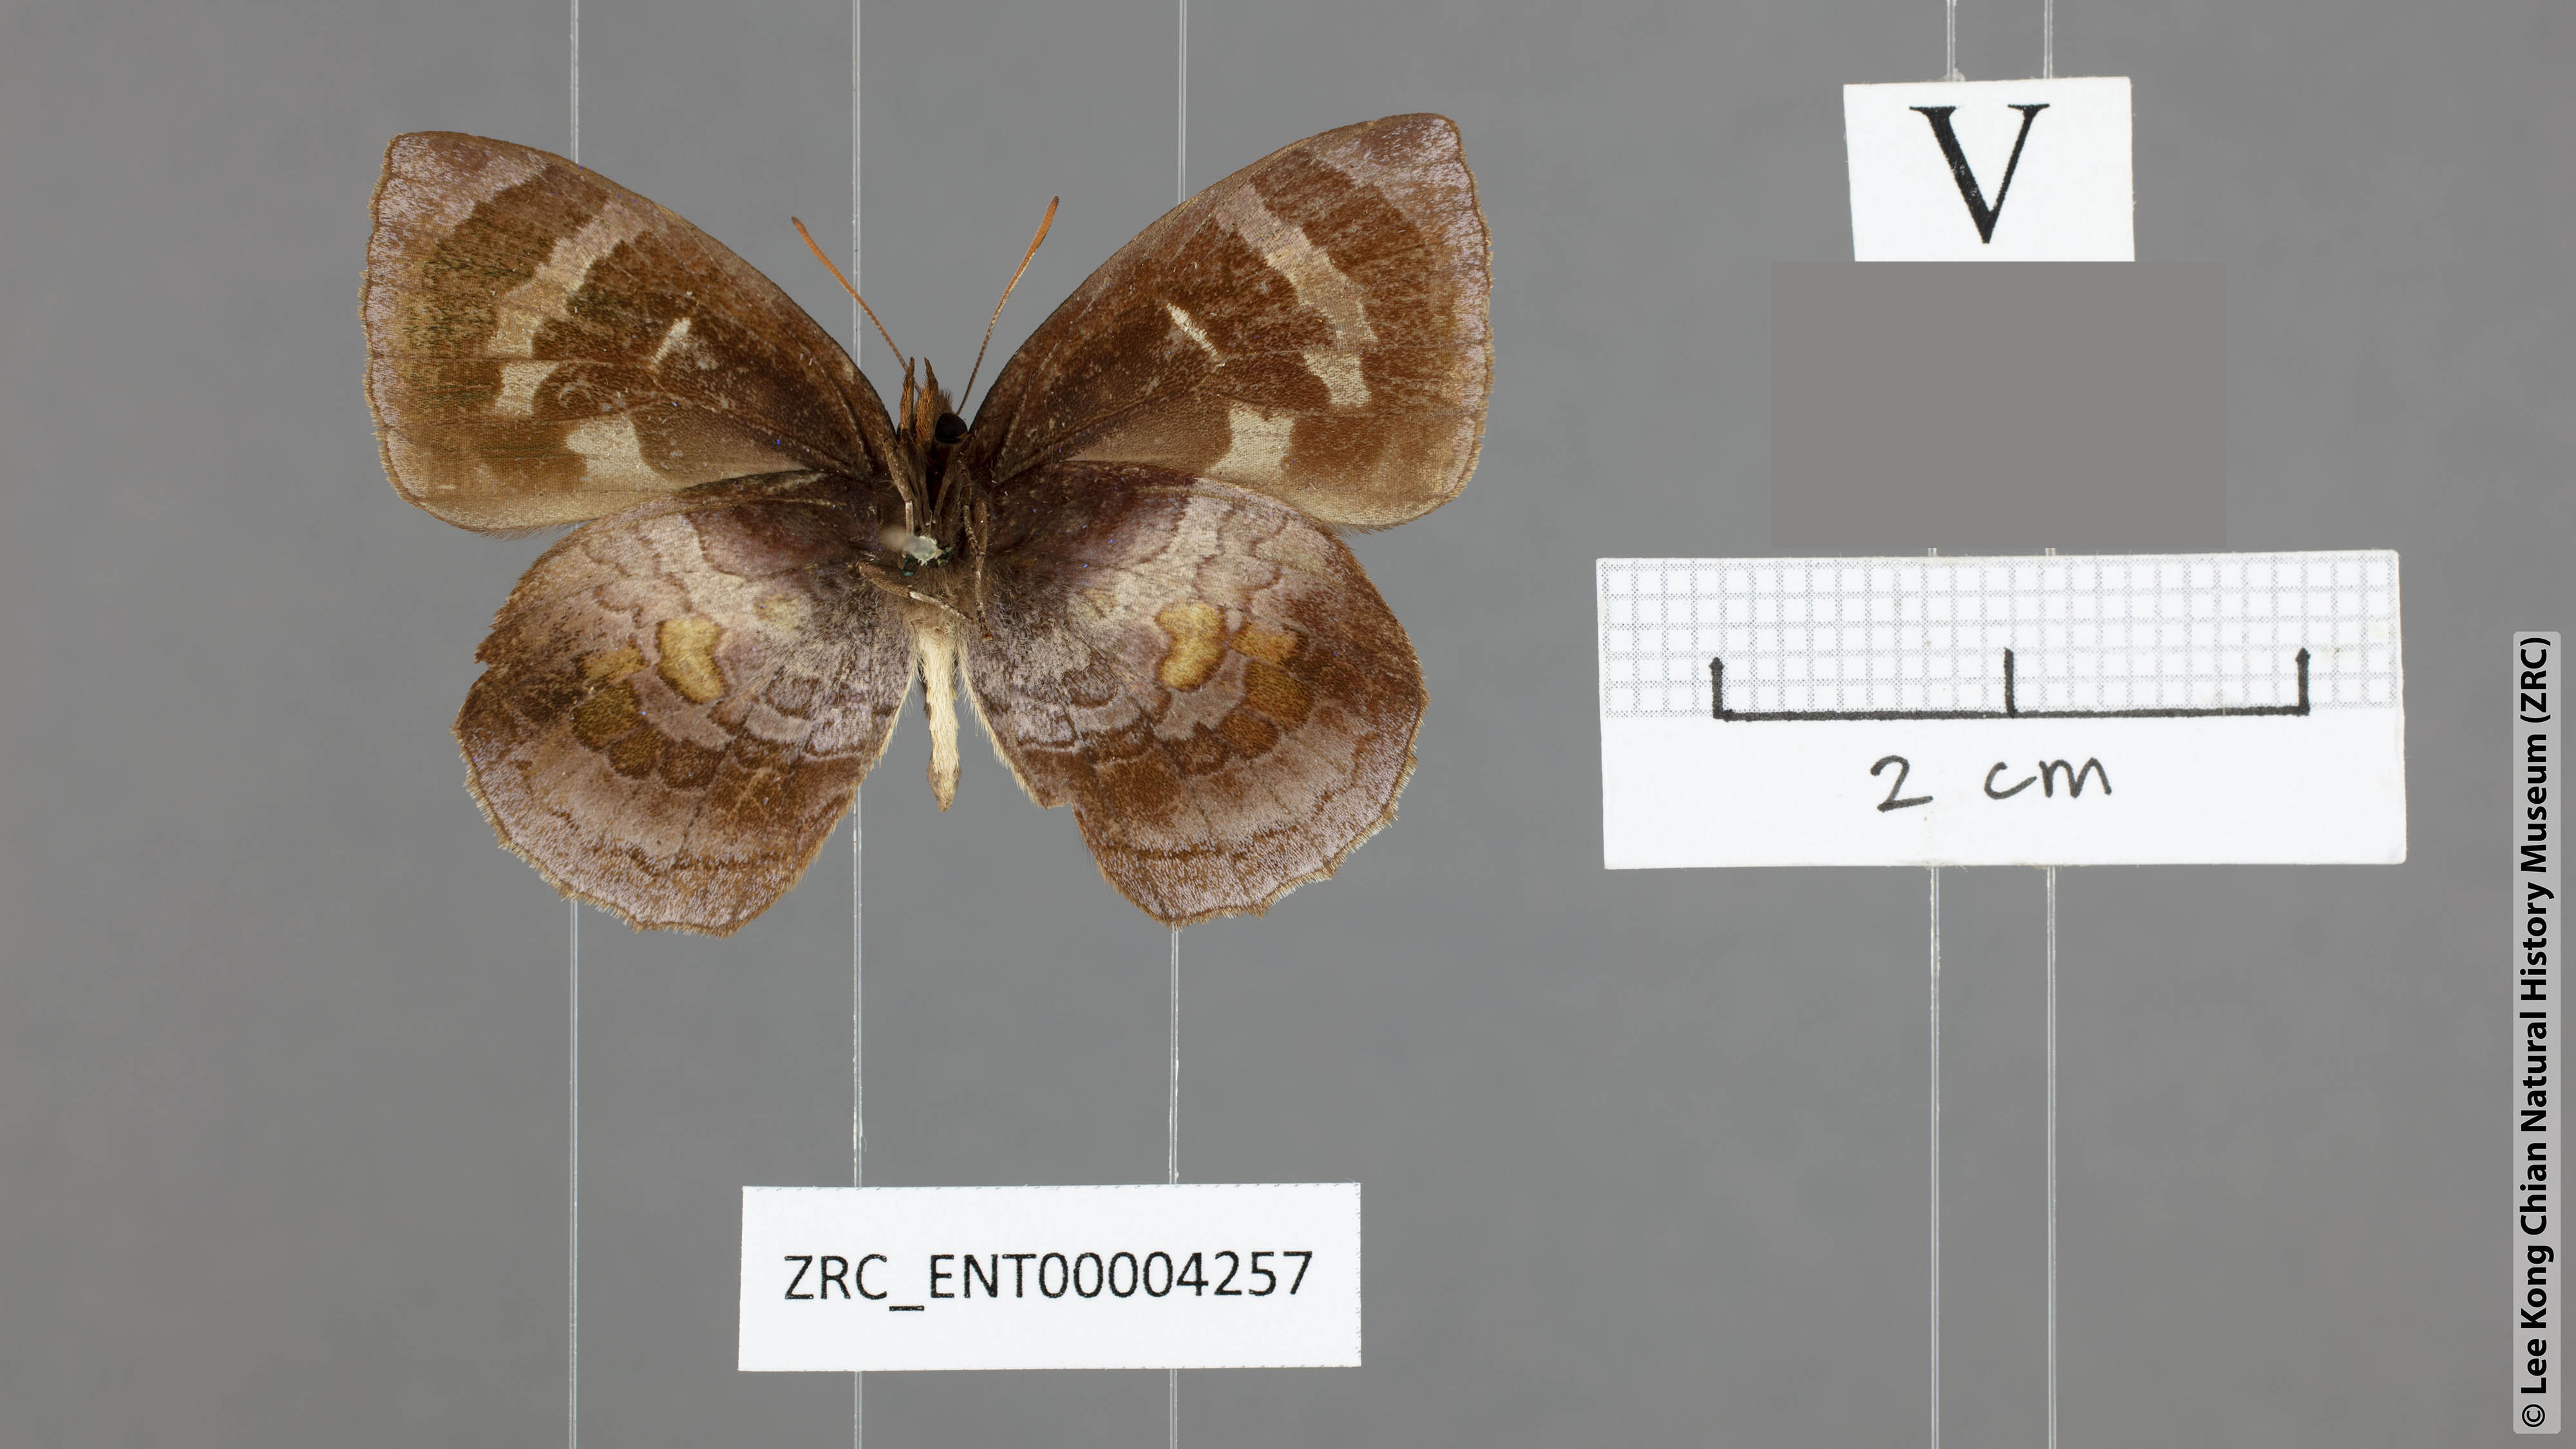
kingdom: Animalia
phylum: Arthropoda
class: Insecta
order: Lepidoptera
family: Lycaenidae
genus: Flos
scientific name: Flos
